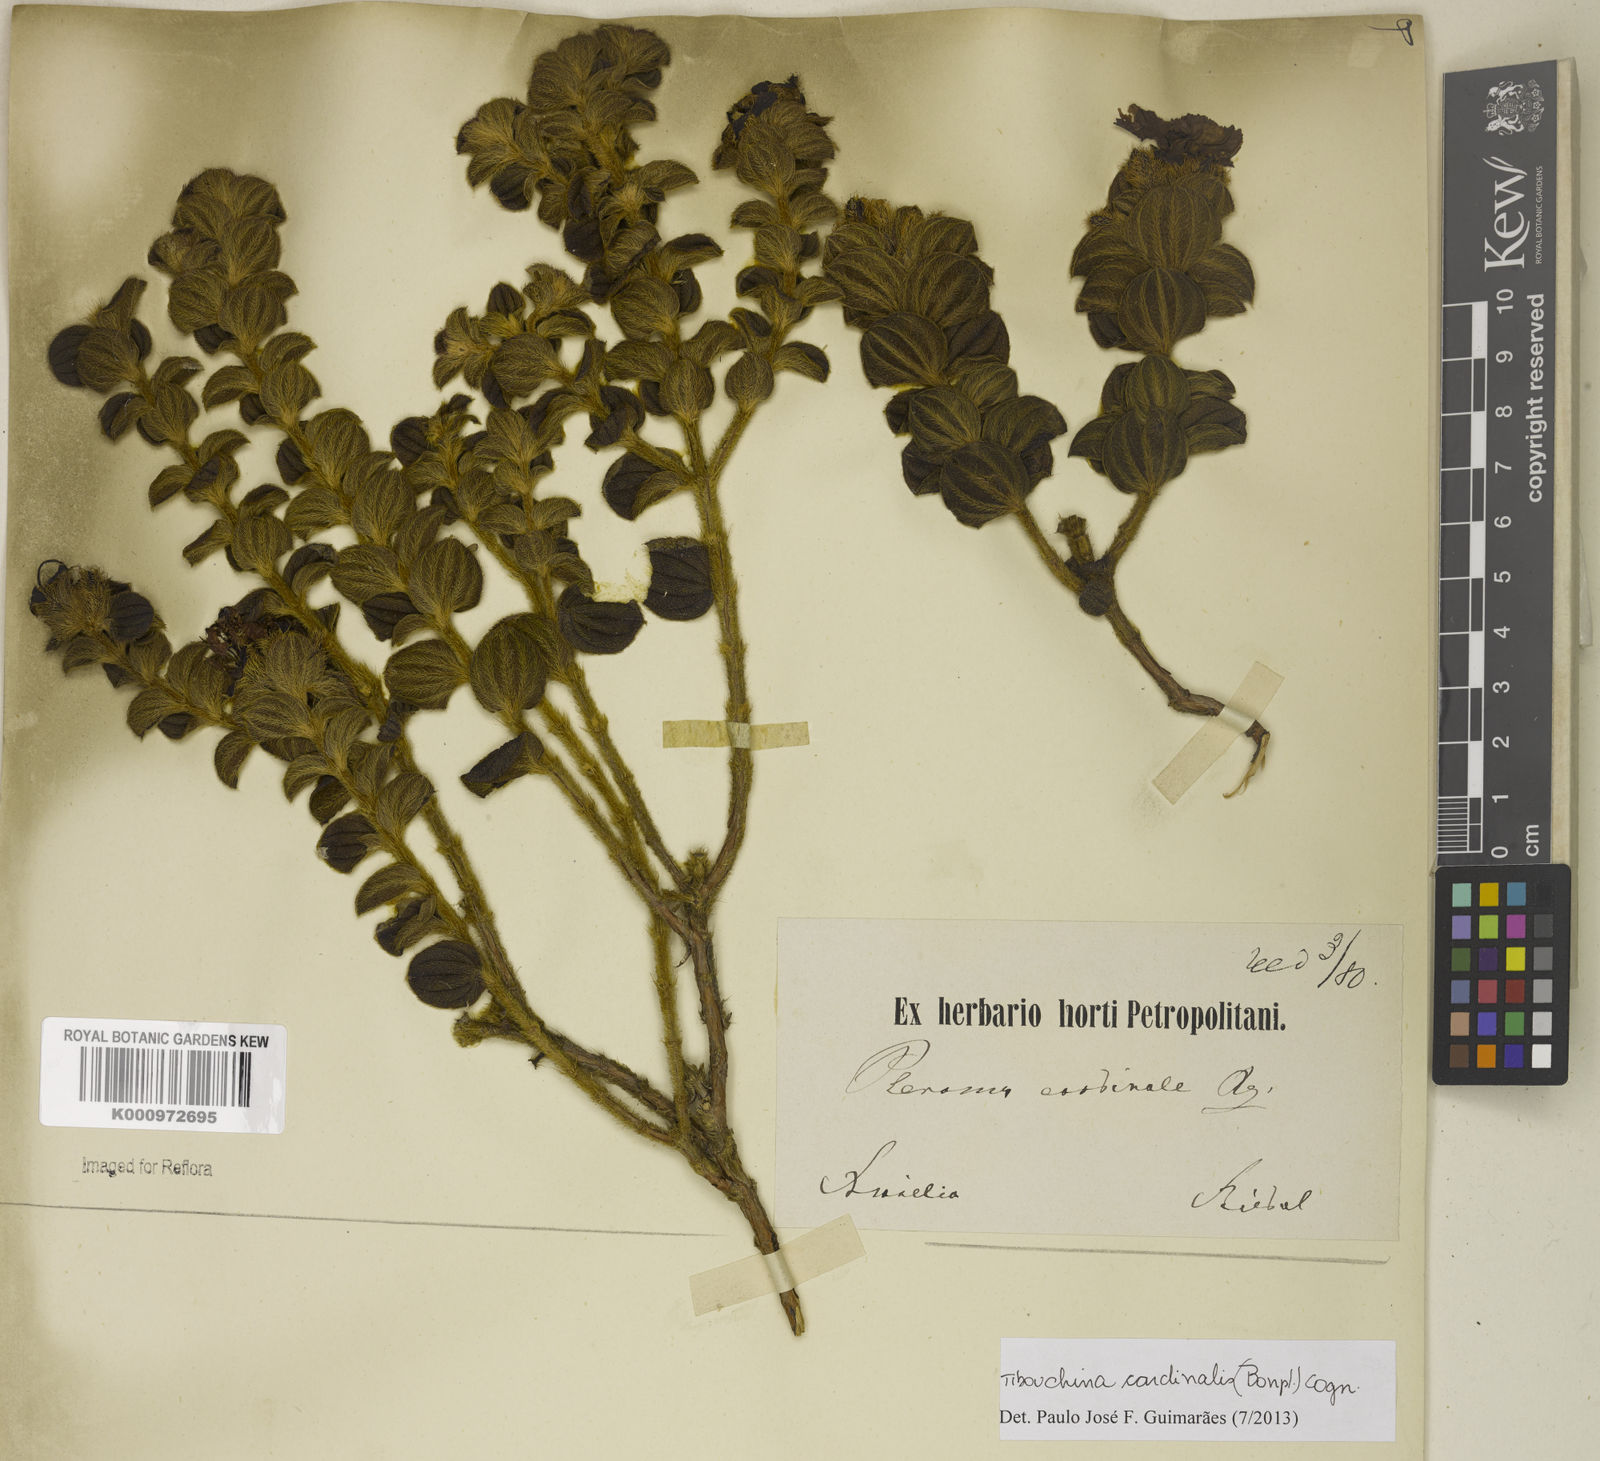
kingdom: Plantae
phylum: Tracheophyta
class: Magnoliopsida
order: Myrtales
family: Melastomataceae
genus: Chaetogastra
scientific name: Chaetogastra cardinalis
